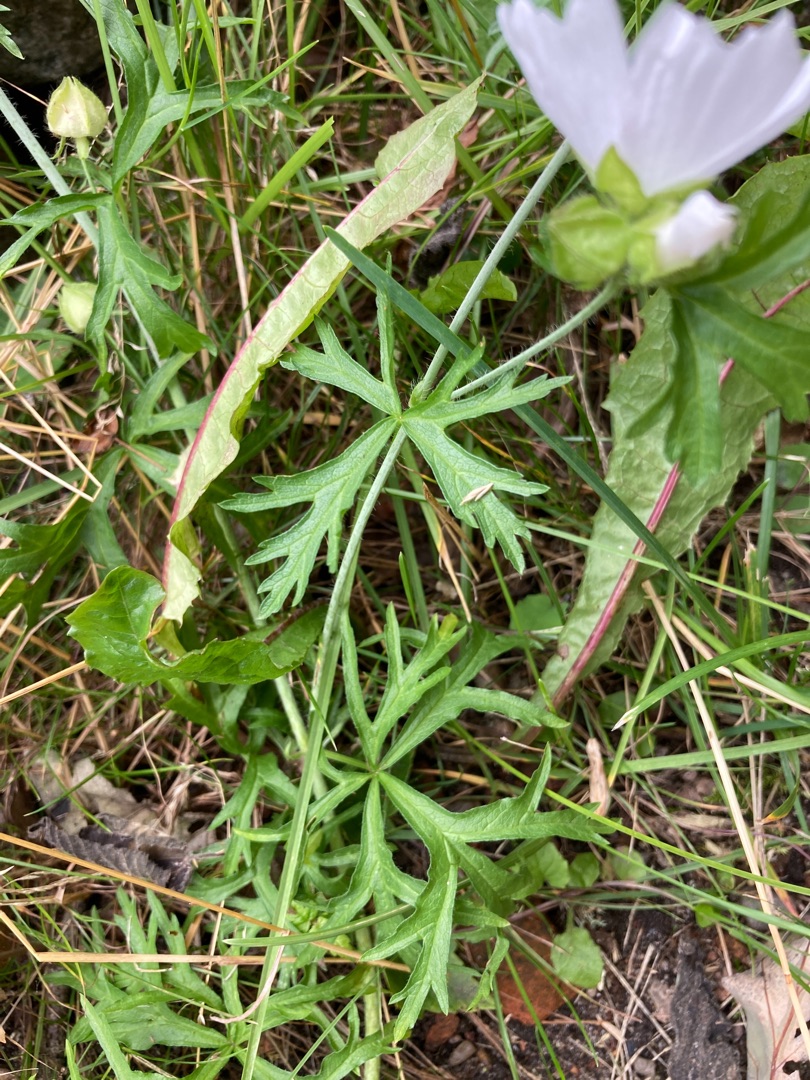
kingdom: Plantae
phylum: Tracheophyta
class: Magnoliopsida
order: Malvales
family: Malvaceae
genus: Malva
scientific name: Malva moschata
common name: Moskus-katost
